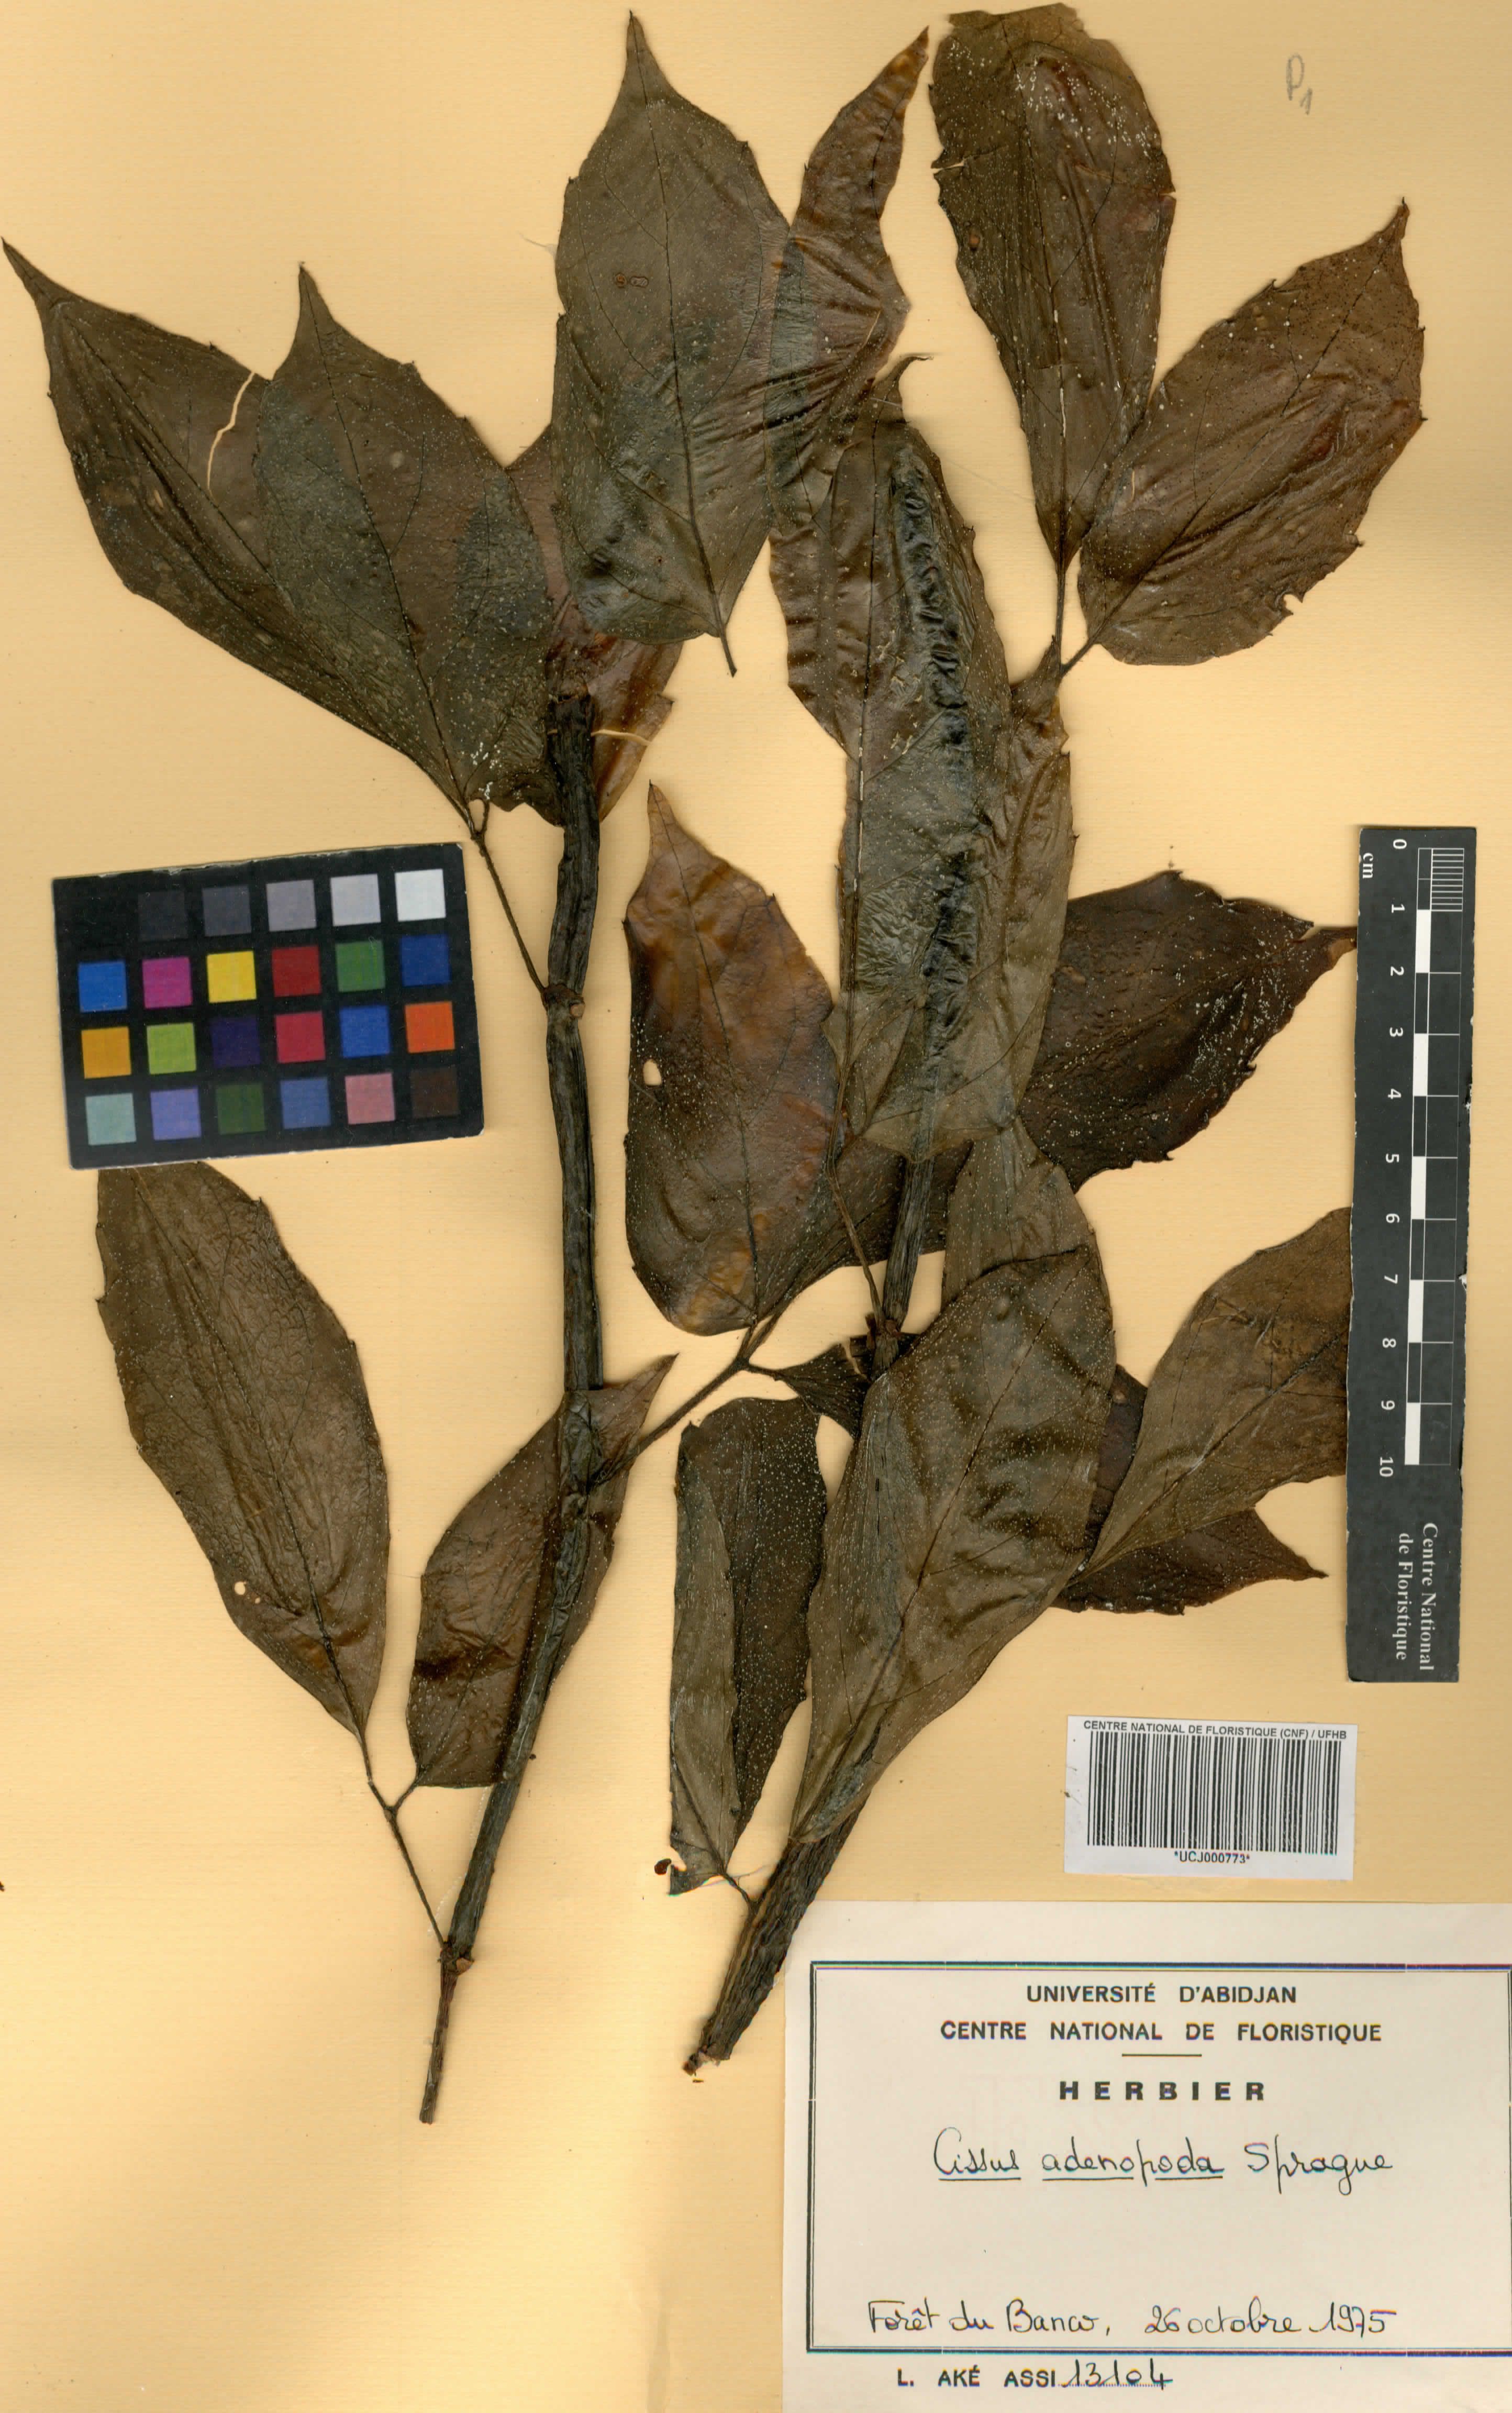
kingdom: Plantae
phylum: Tracheophyta
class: Magnoliopsida
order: Vitales
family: Vitaceae
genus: Cyphostemma
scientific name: Cyphostemma adenopodum
